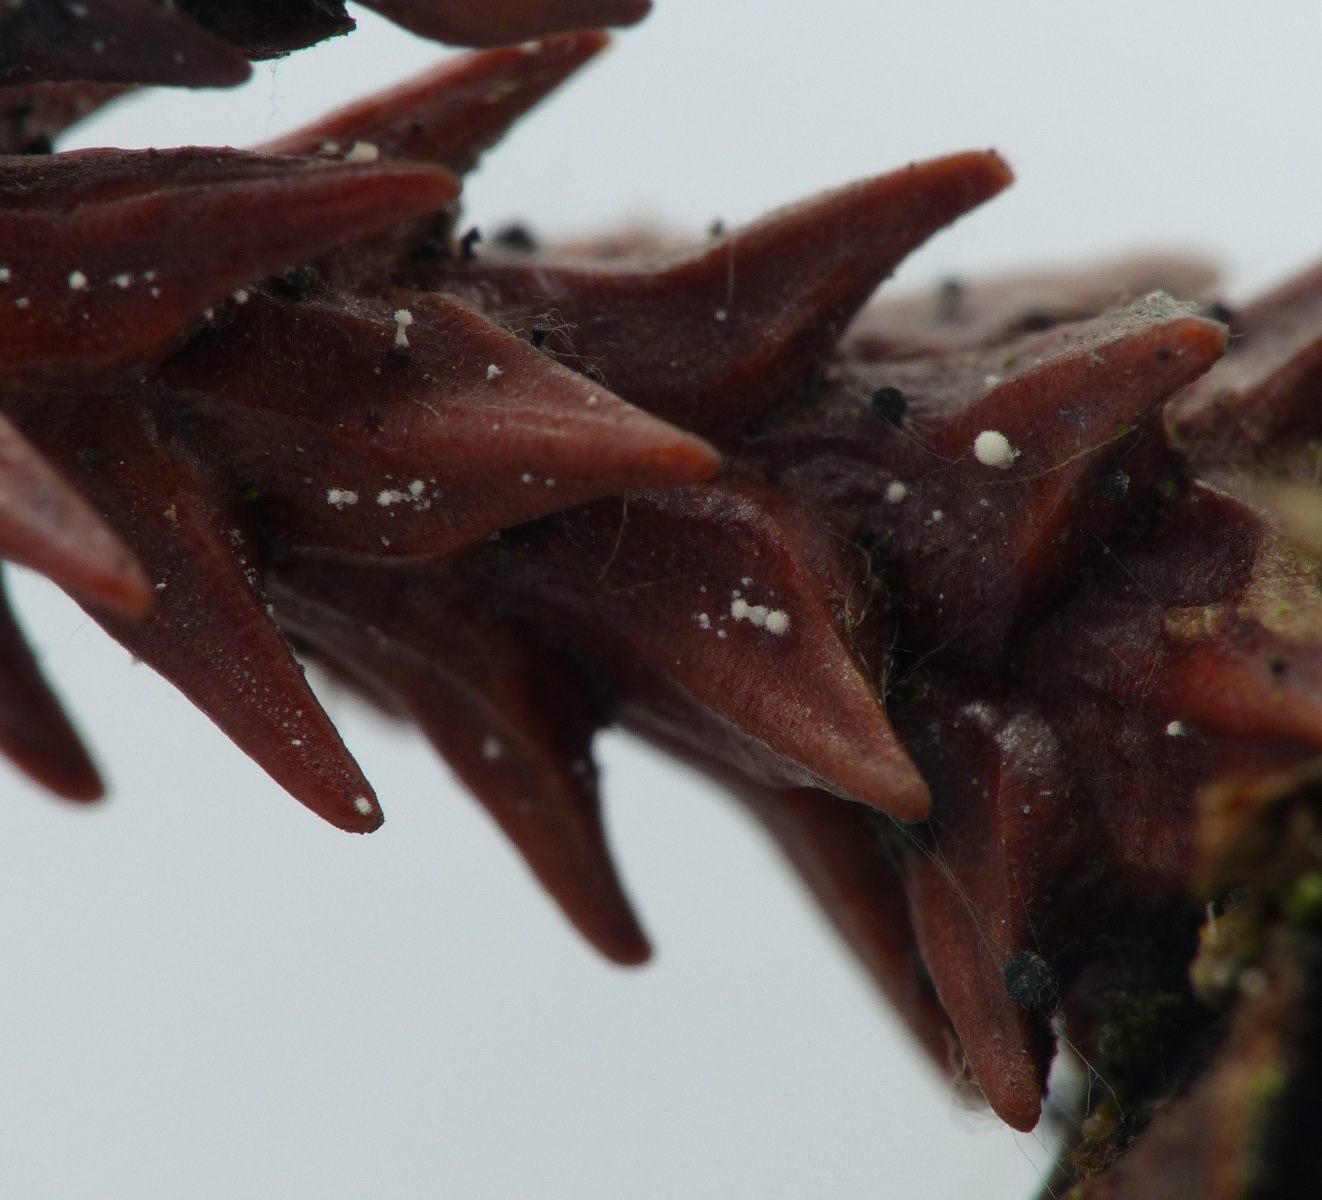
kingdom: Fungi
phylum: Basidiomycota
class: Agaricomycetes
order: Agaricales
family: Physalacriaceae
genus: Physalacria
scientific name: Physalacria cryptomeriae
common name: japangran-boldkølle
